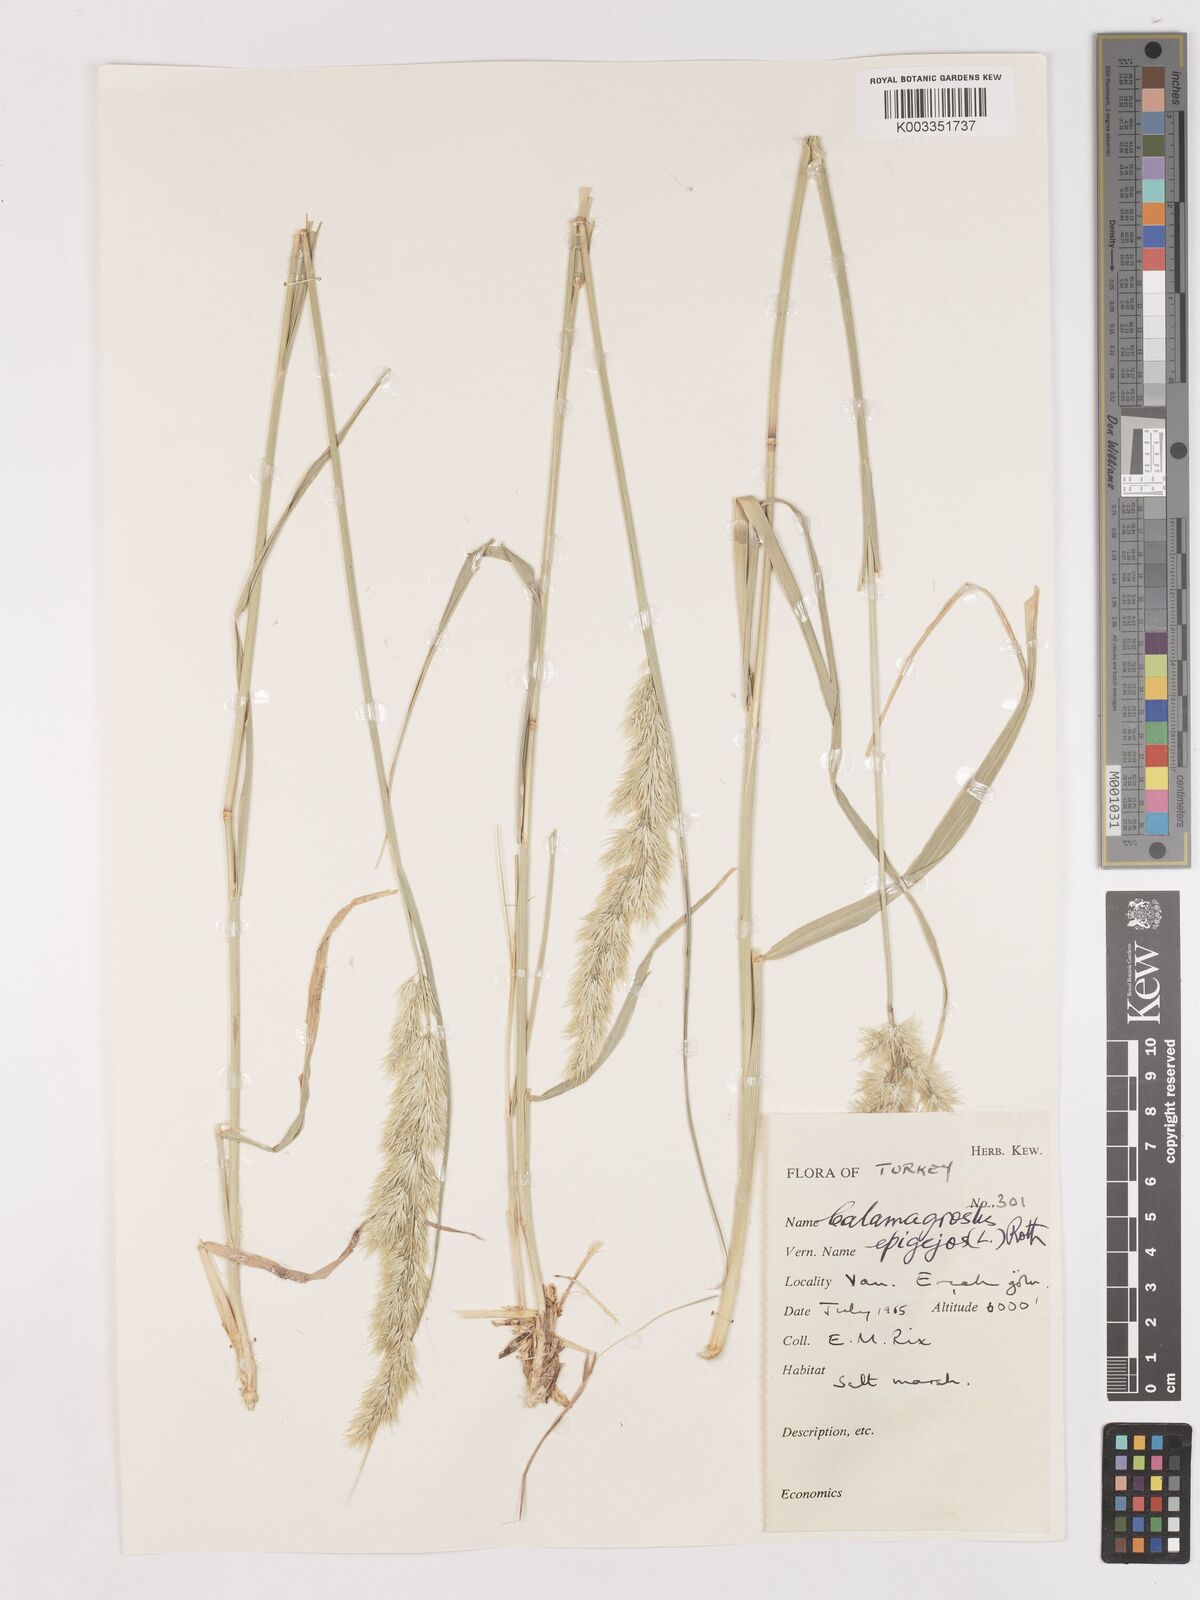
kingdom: Plantae
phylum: Tracheophyta
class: Liliopsida
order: Poales
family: Poaceae
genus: Calamagrostis
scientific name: Calamagrostis
